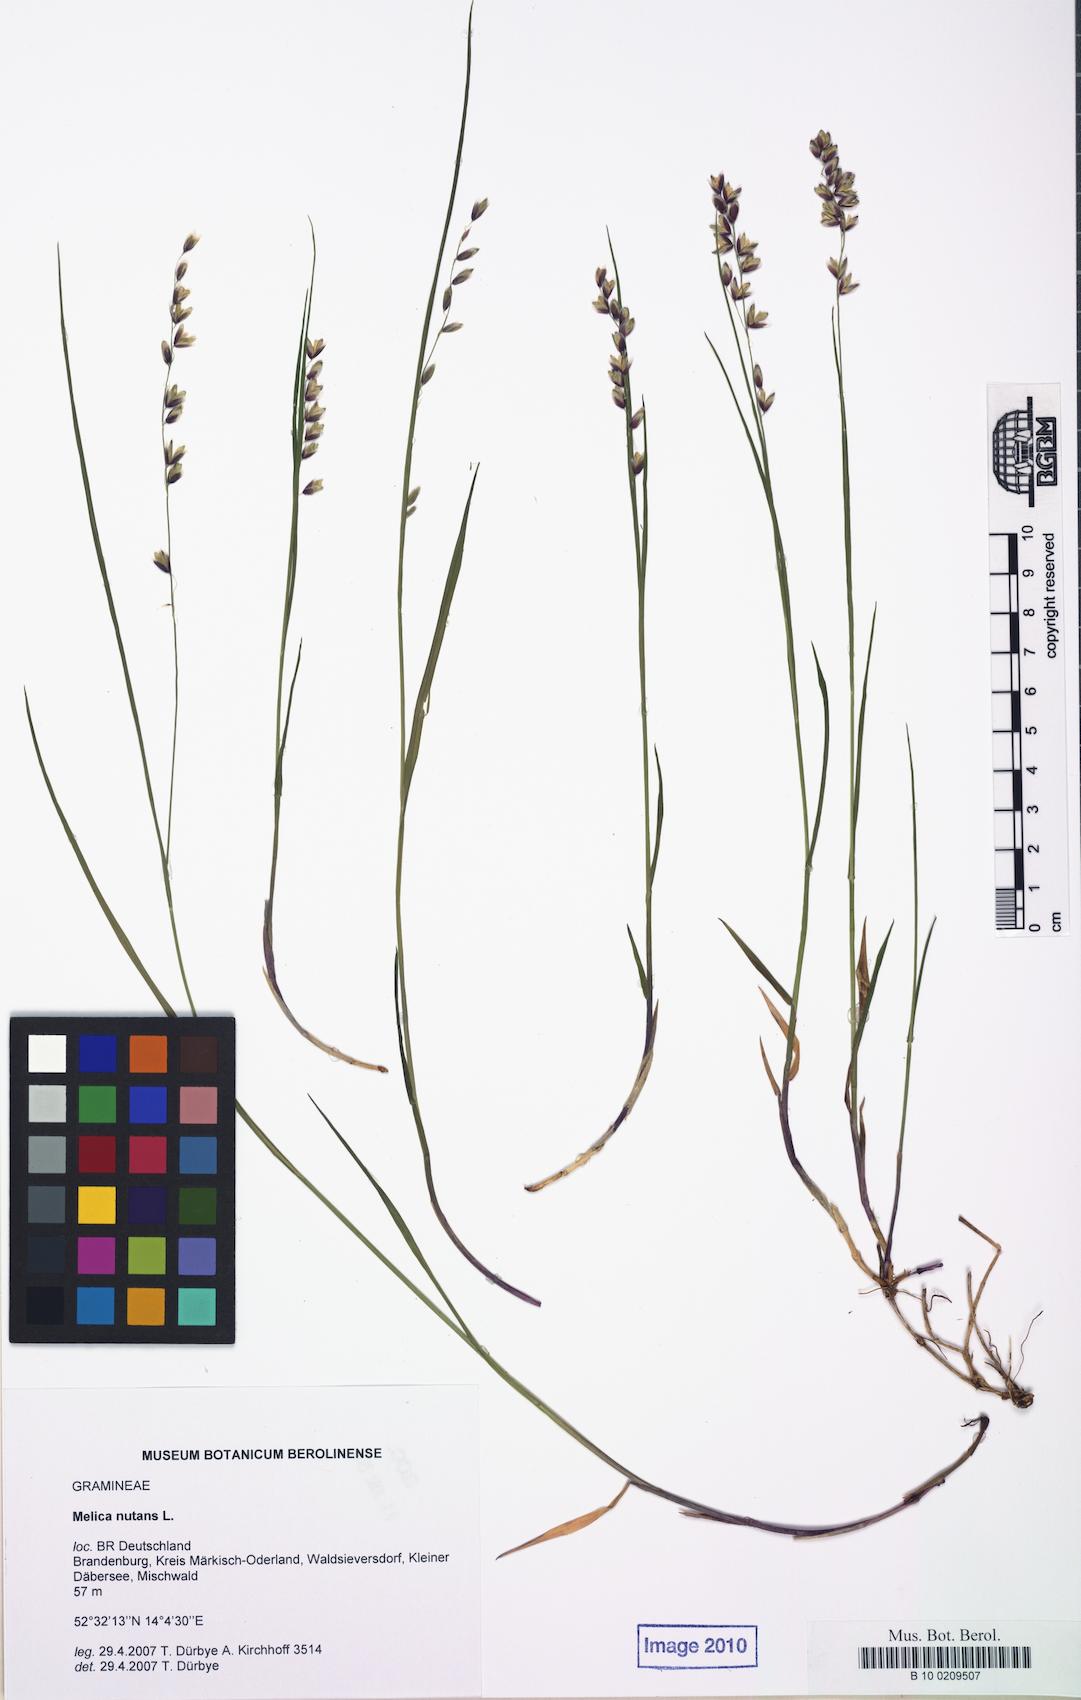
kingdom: Plantae
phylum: Tracheophyta
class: Liliopsida
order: Poales
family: Poaceae
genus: Melica
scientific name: Melica nutans
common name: Mountain melick
